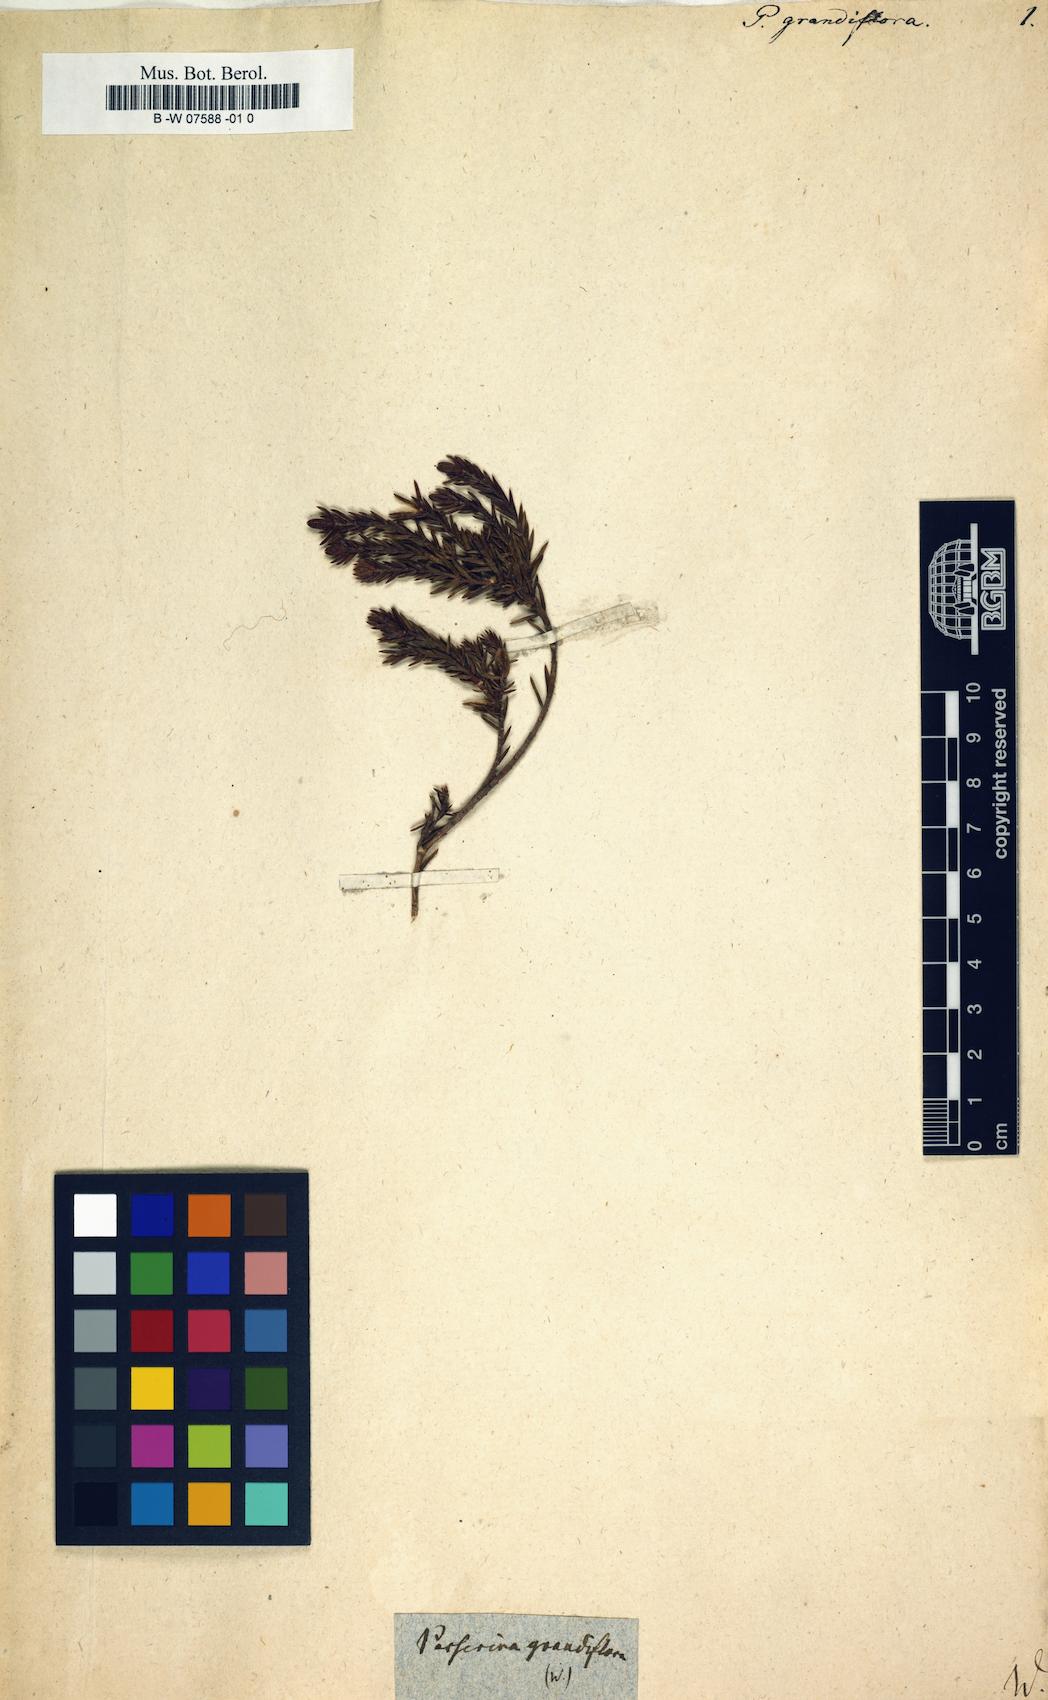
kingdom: Plantae
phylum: Tracheophyta
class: Magnoliopsida
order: Malvales
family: Thymelaeaceae
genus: Lachnaea
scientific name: Lachnaea grandiflora
